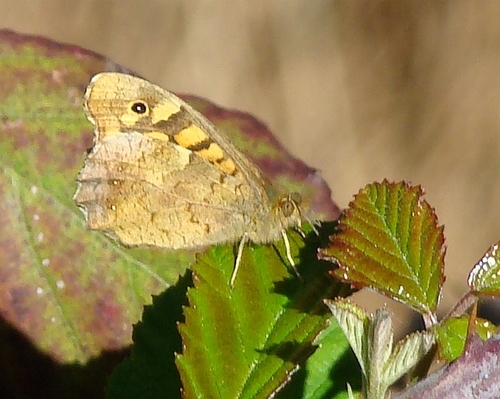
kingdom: Animalia
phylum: Arthropoda
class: Insecta
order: Lepidoptera
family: Nymphalidae
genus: Pararge
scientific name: Pararge aegeria
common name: Speckled wood
